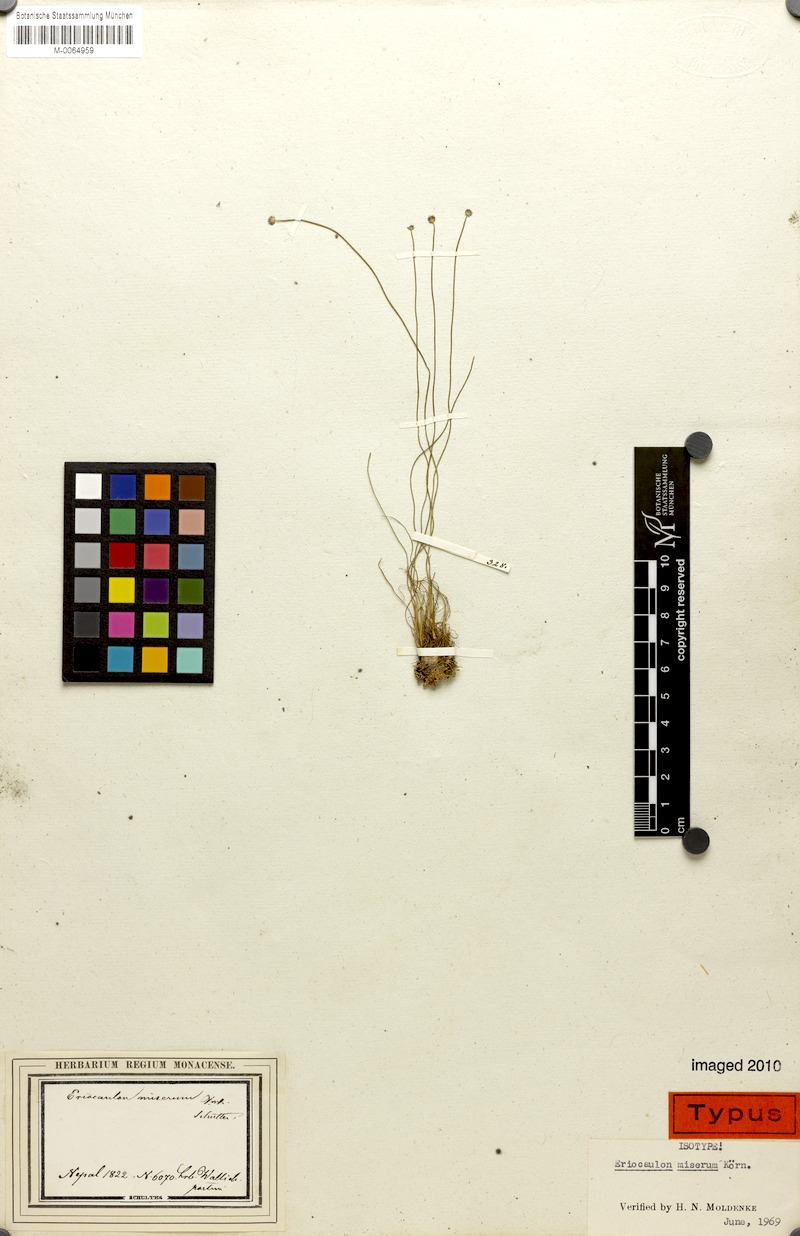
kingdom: Plantae
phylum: Tracheophyta
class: Liliopsida
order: Poales
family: Eriocaulaceae
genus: Eriocaulon
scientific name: Eriocaulon miserum
